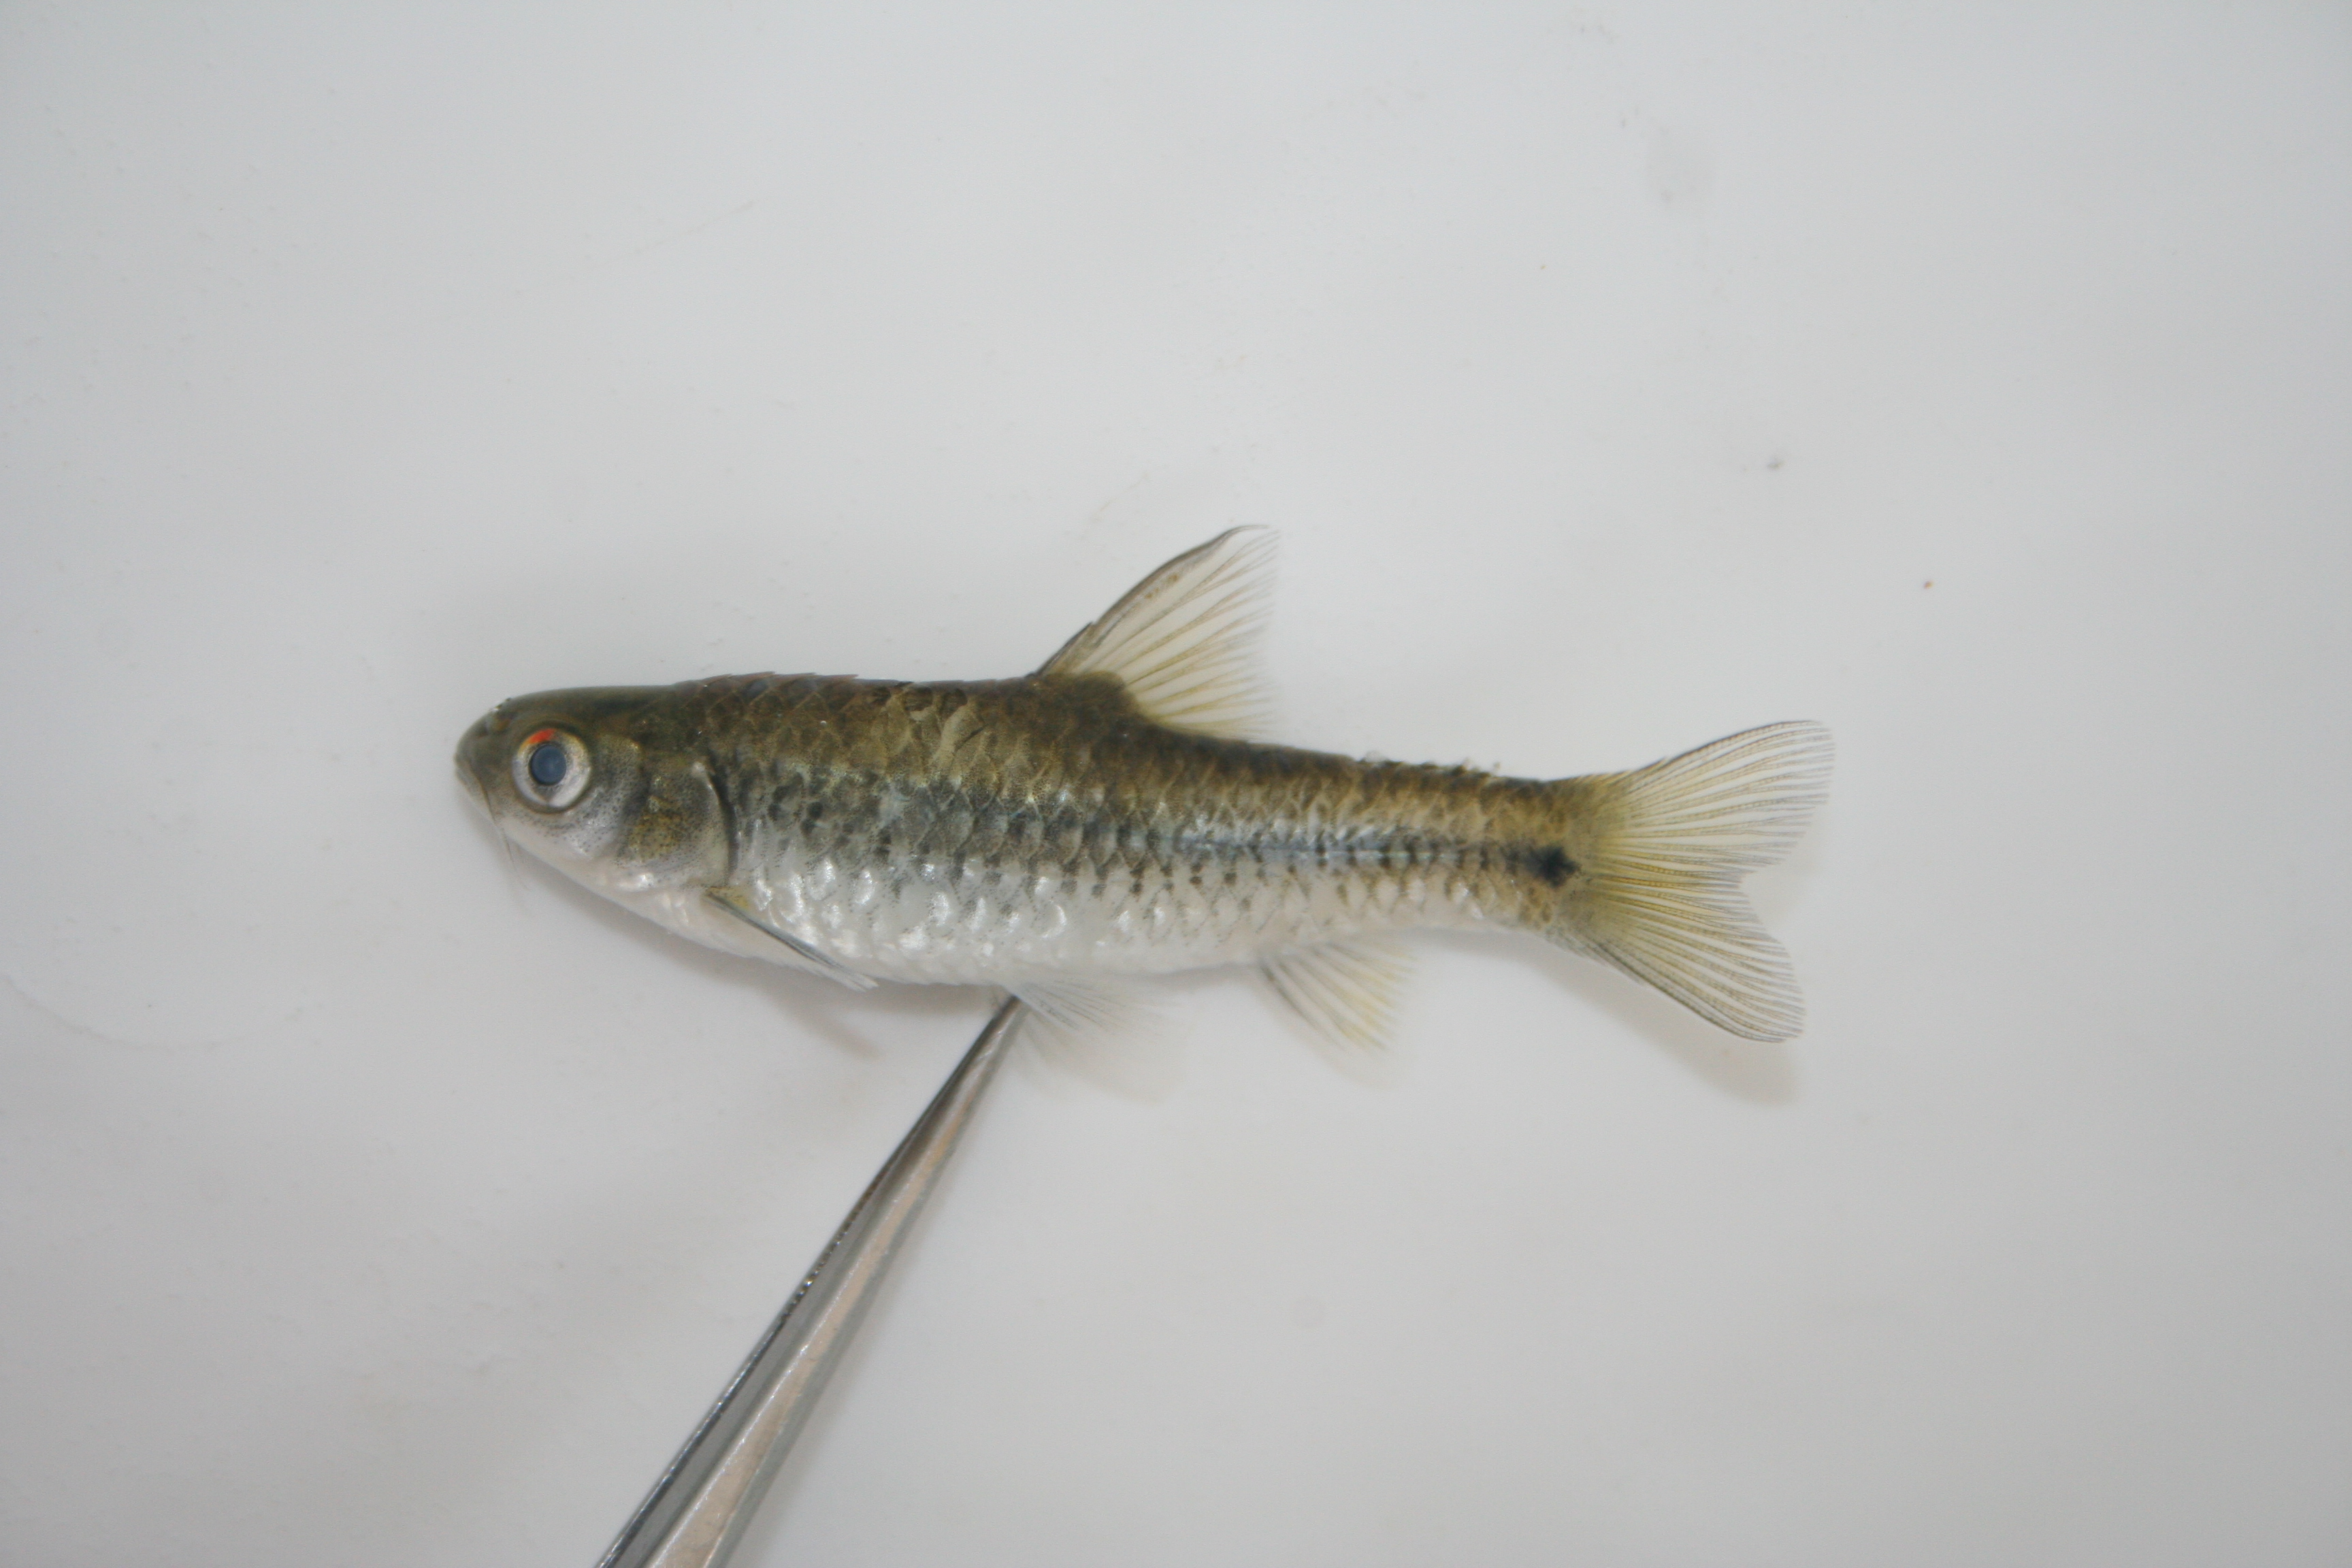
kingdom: Animalia
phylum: Chordata
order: Cypriniformes
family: Cyprinidae
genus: Enteromius
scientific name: Enteromius kessleri
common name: Gillbar barb
